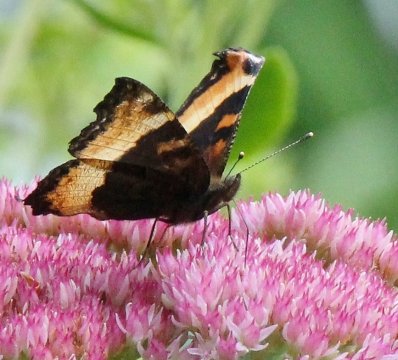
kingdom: Animalia
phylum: Arthropoda
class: Insecta
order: Lepidoptera
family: Nymphalidae
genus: Aglais
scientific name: Aglais milberti
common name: Milbert's Tortoiseshell
